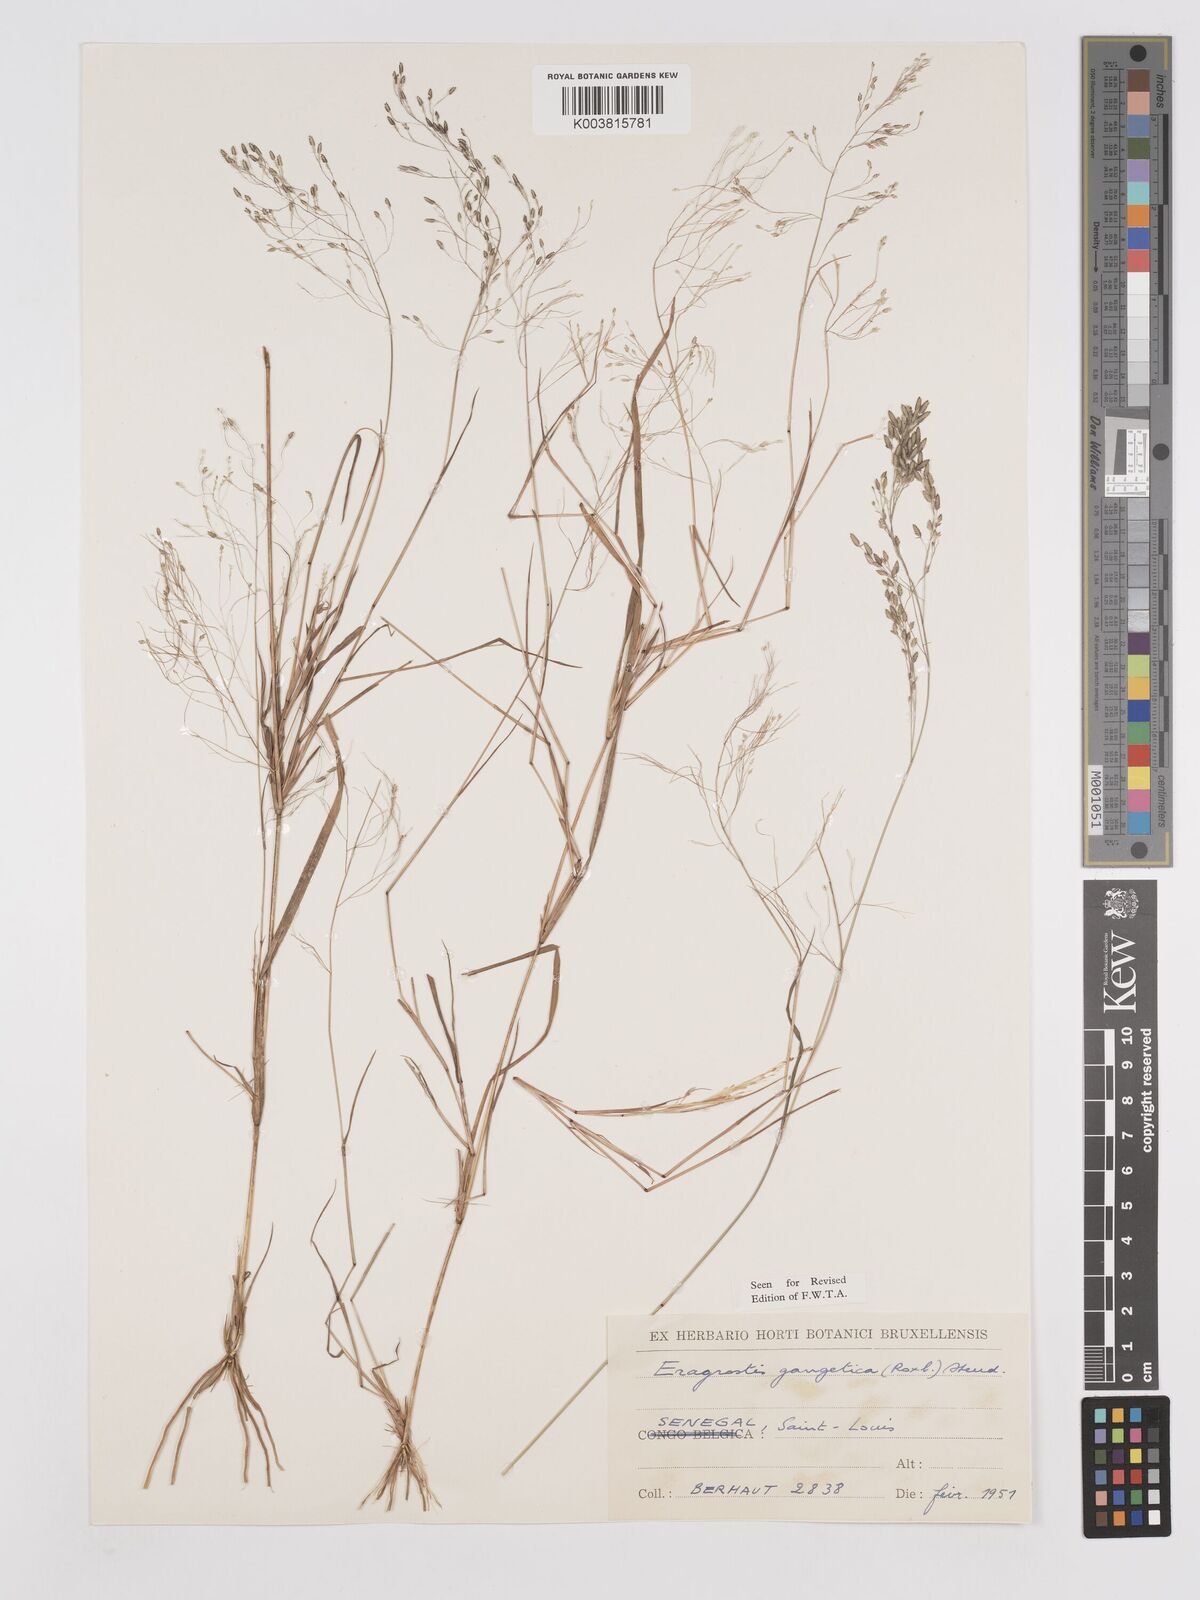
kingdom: Plantae
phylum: Tracheophyta
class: Liliopsida
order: Poales
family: Poaceae
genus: Eragrostis
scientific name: Eragrostis gangetica
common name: Slimflower lovegrass
